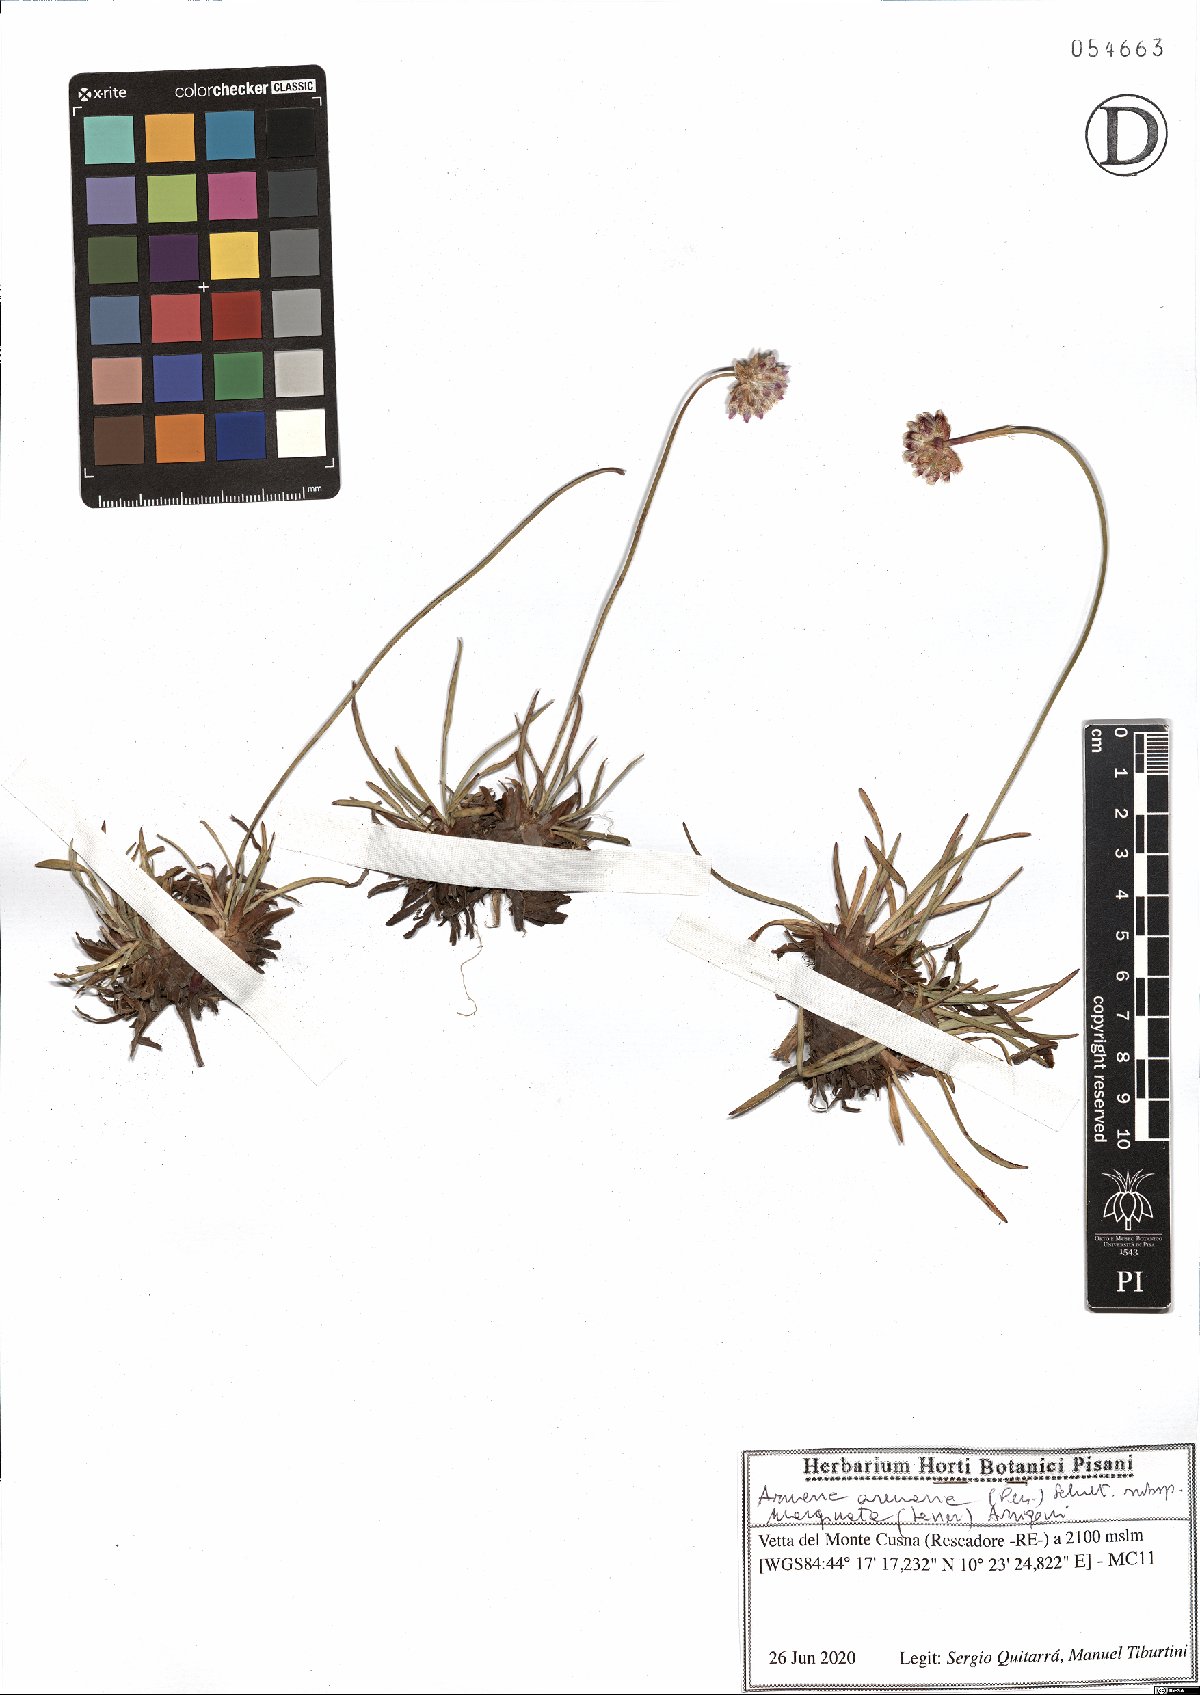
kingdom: Plantae
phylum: Tracheophyta
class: Magnoliopsida
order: Caryophyllales
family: Plumbaginaceae
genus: Armeria
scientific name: Armeria arenaria
